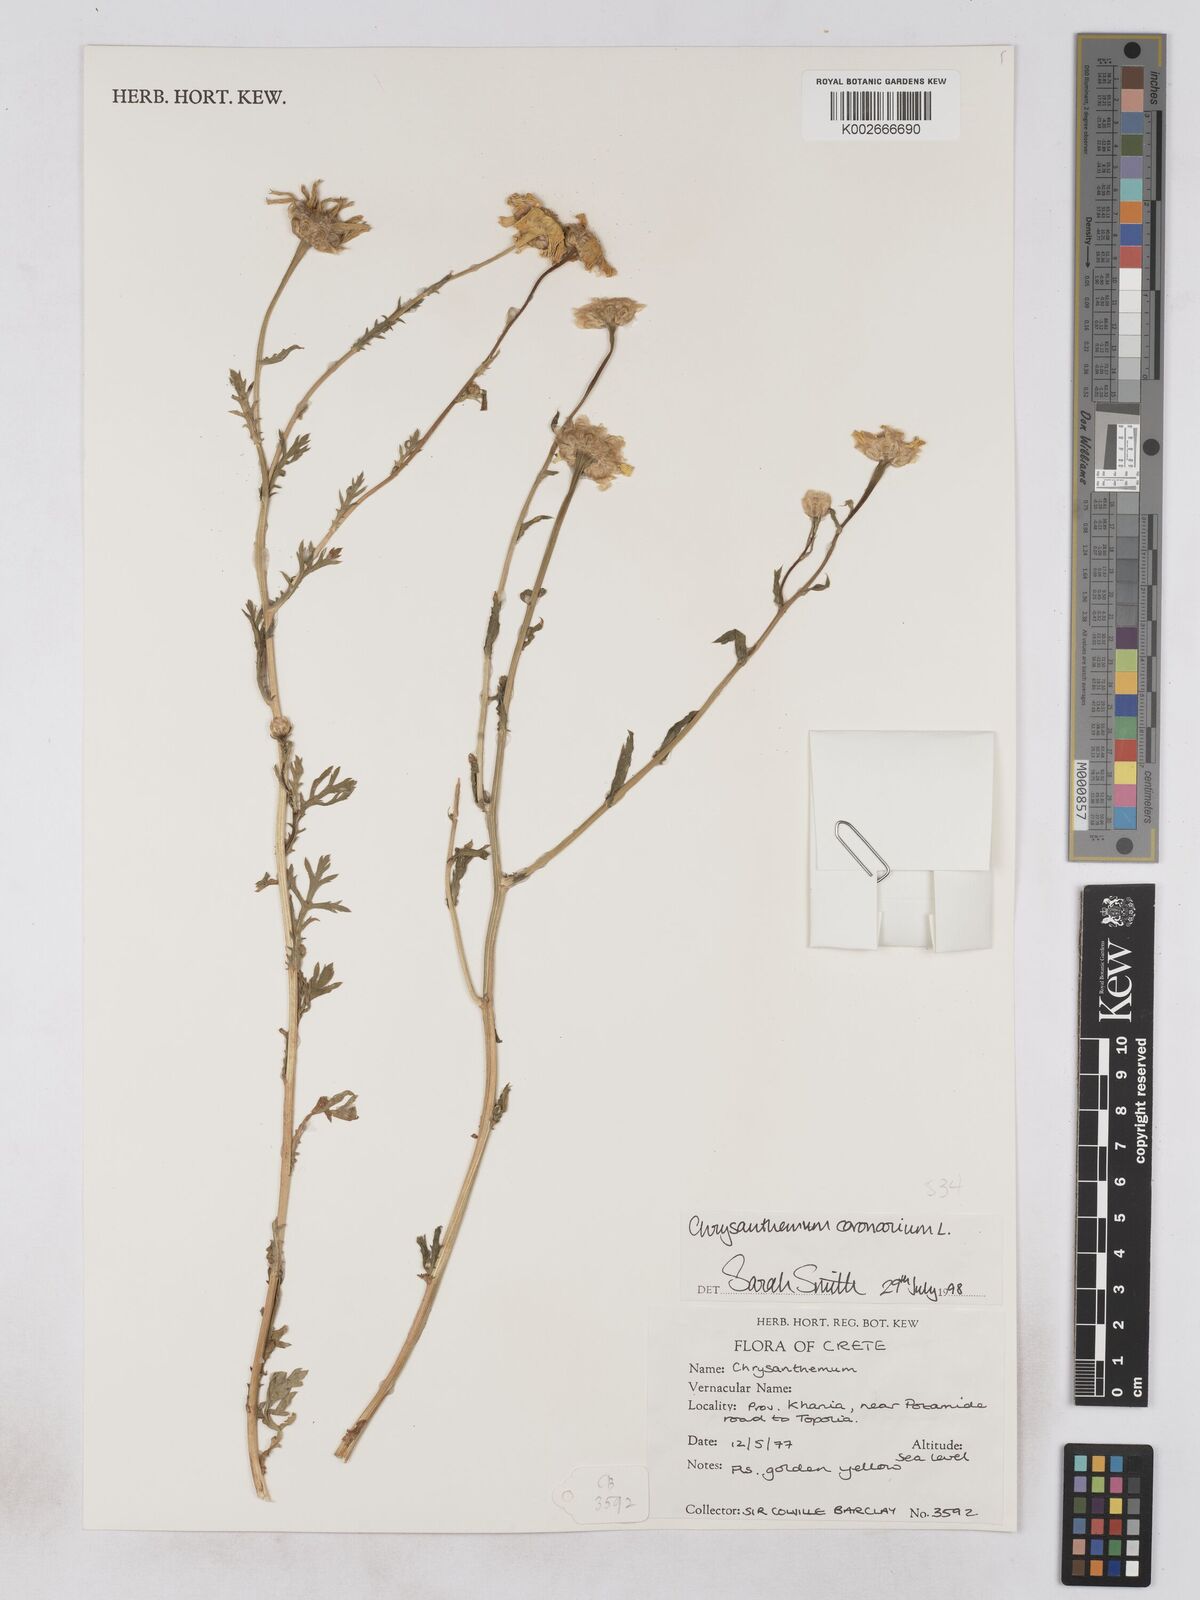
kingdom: Plantae
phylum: Tracheophyta
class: Magnoliopsida
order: Asterales
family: Asteraceae
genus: Glebionis
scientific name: Glebionis coronaria
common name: Crowndaisy
